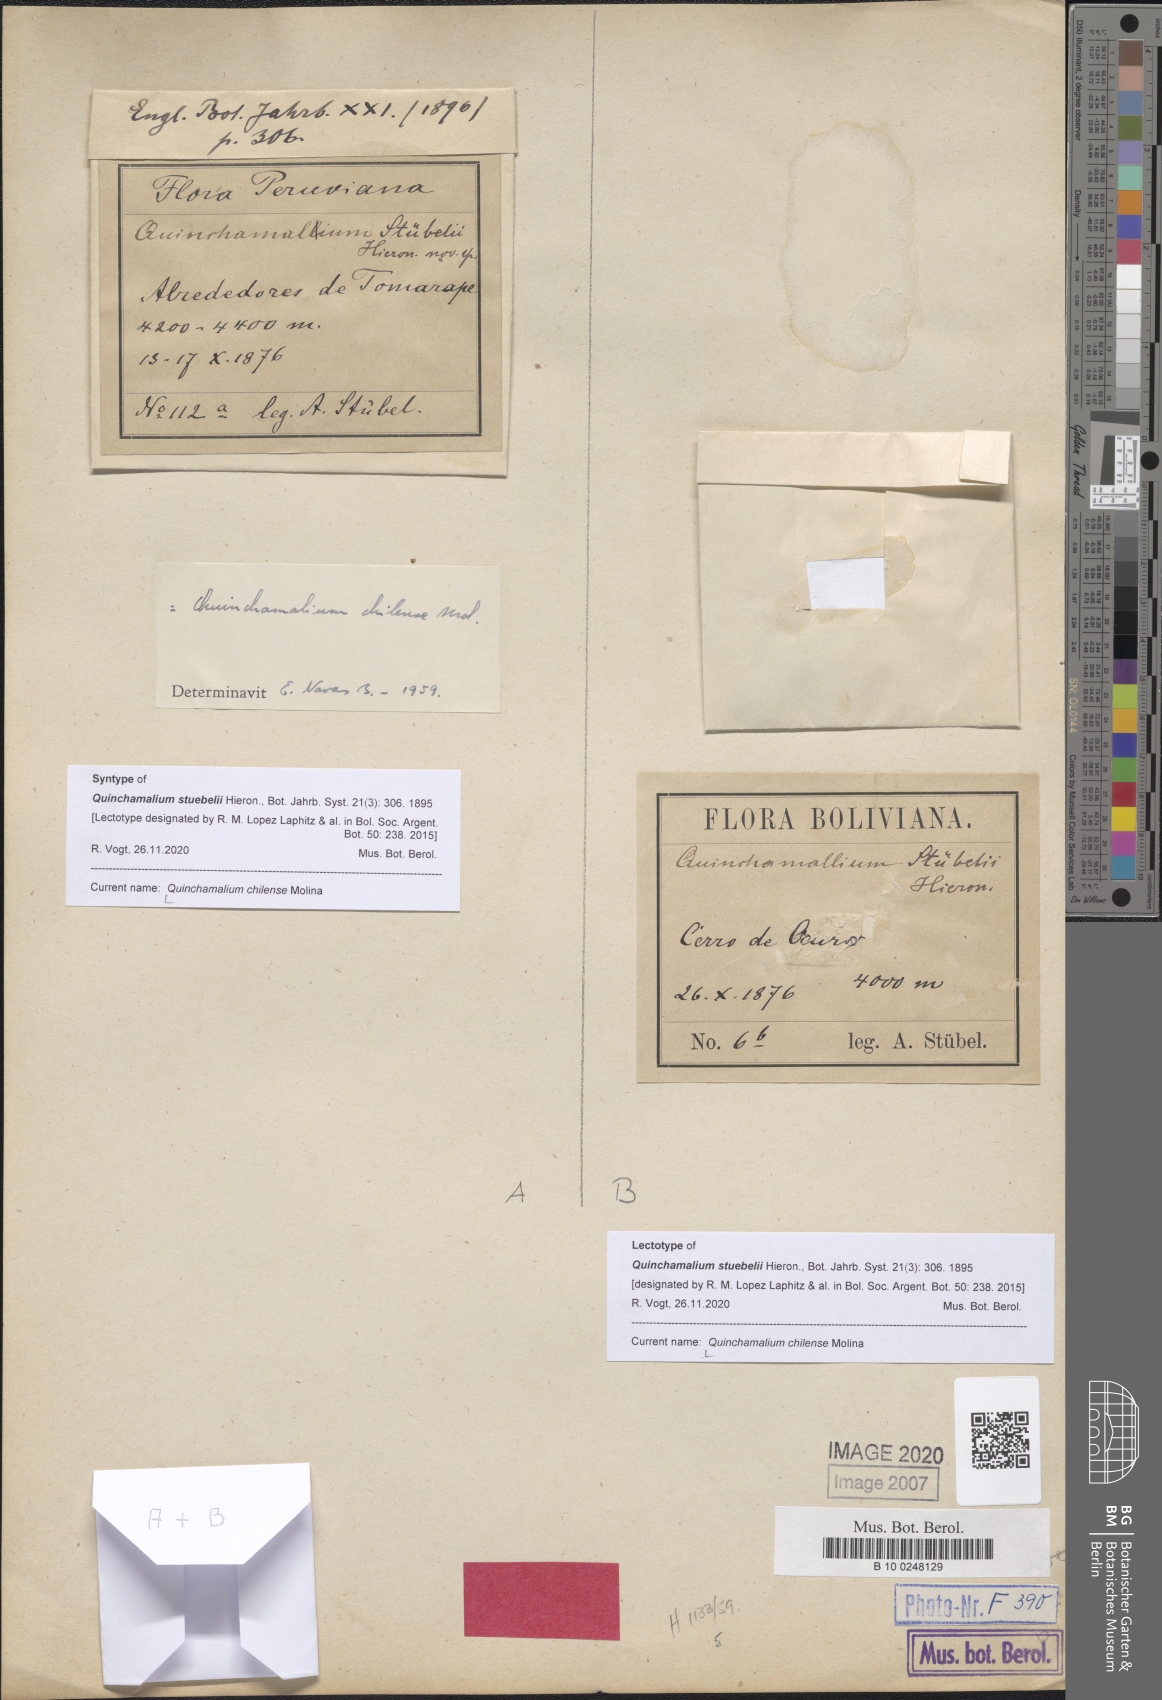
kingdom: Plantae
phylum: Tracheophyta
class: Magnoliopsida
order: Santalales
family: Schoepfiaceae
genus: Quinchamalium
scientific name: Quinchamalium chilense
